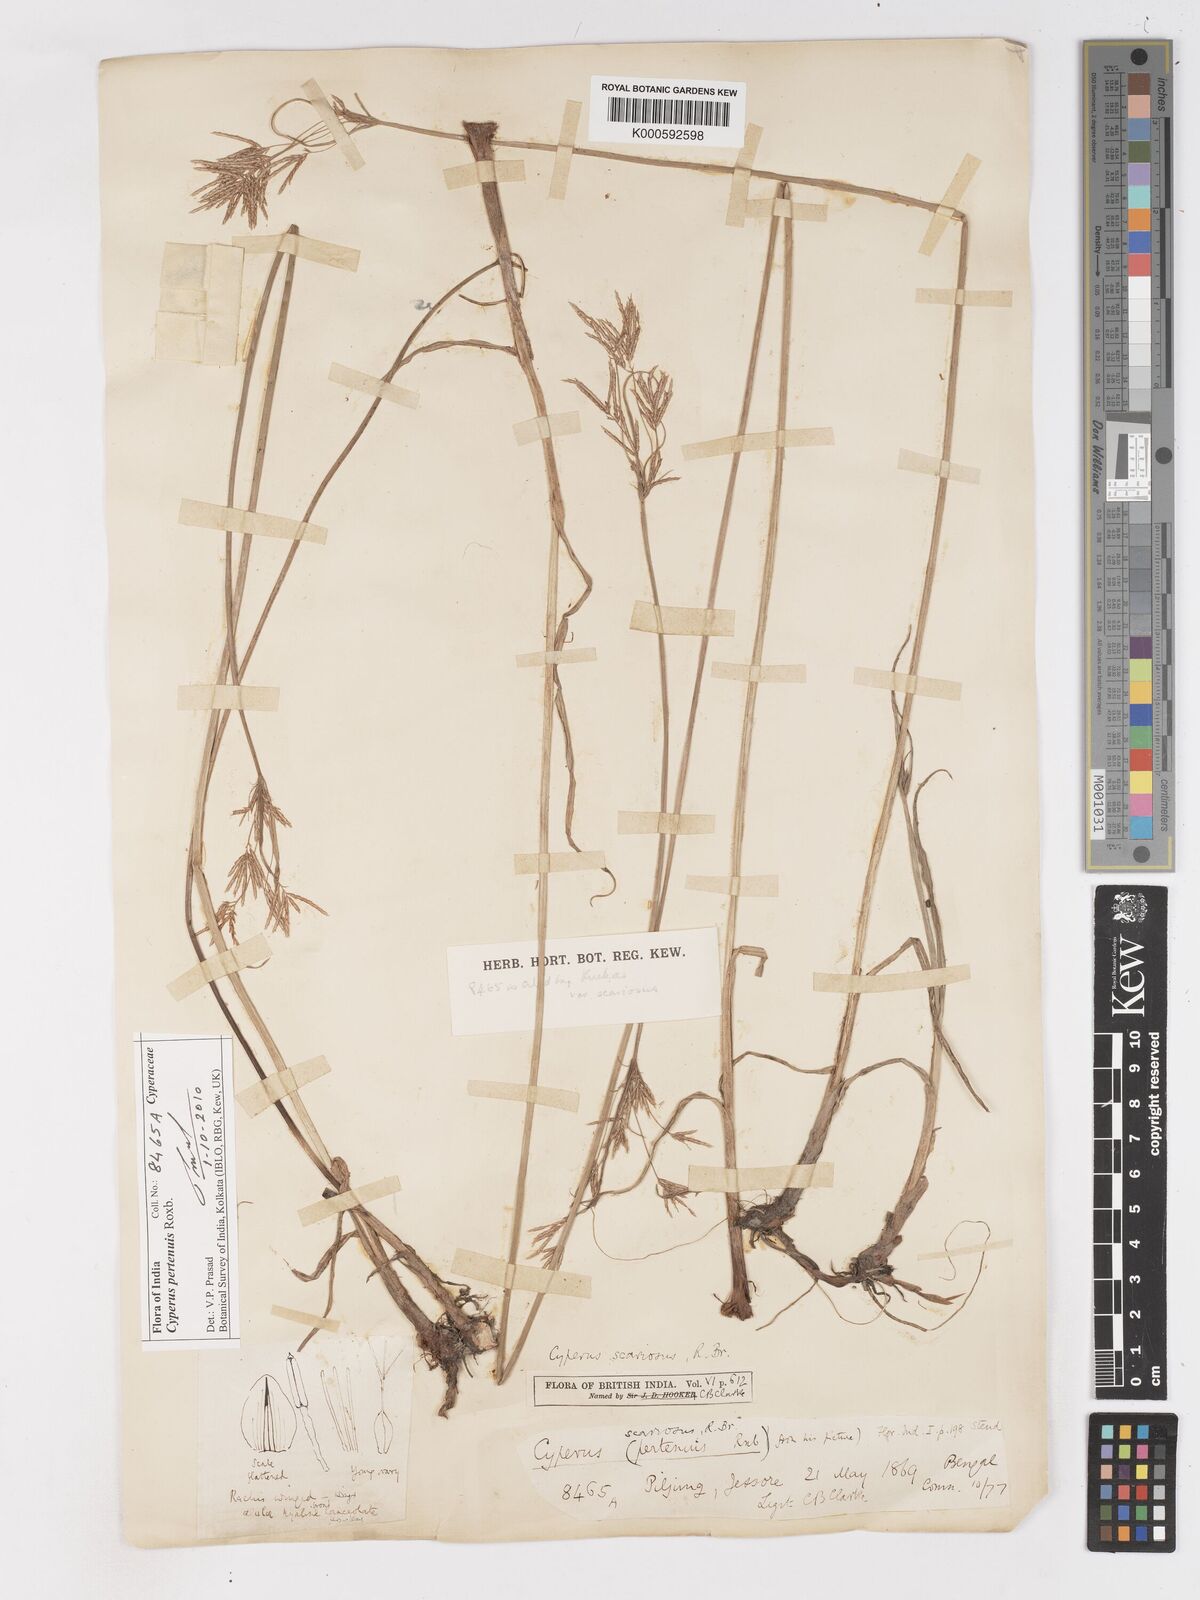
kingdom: Plantae
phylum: Tracheophyta
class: Liliopsida
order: Poales
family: Cyperaceae
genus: Cyperus
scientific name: Cyperus corymbosus
